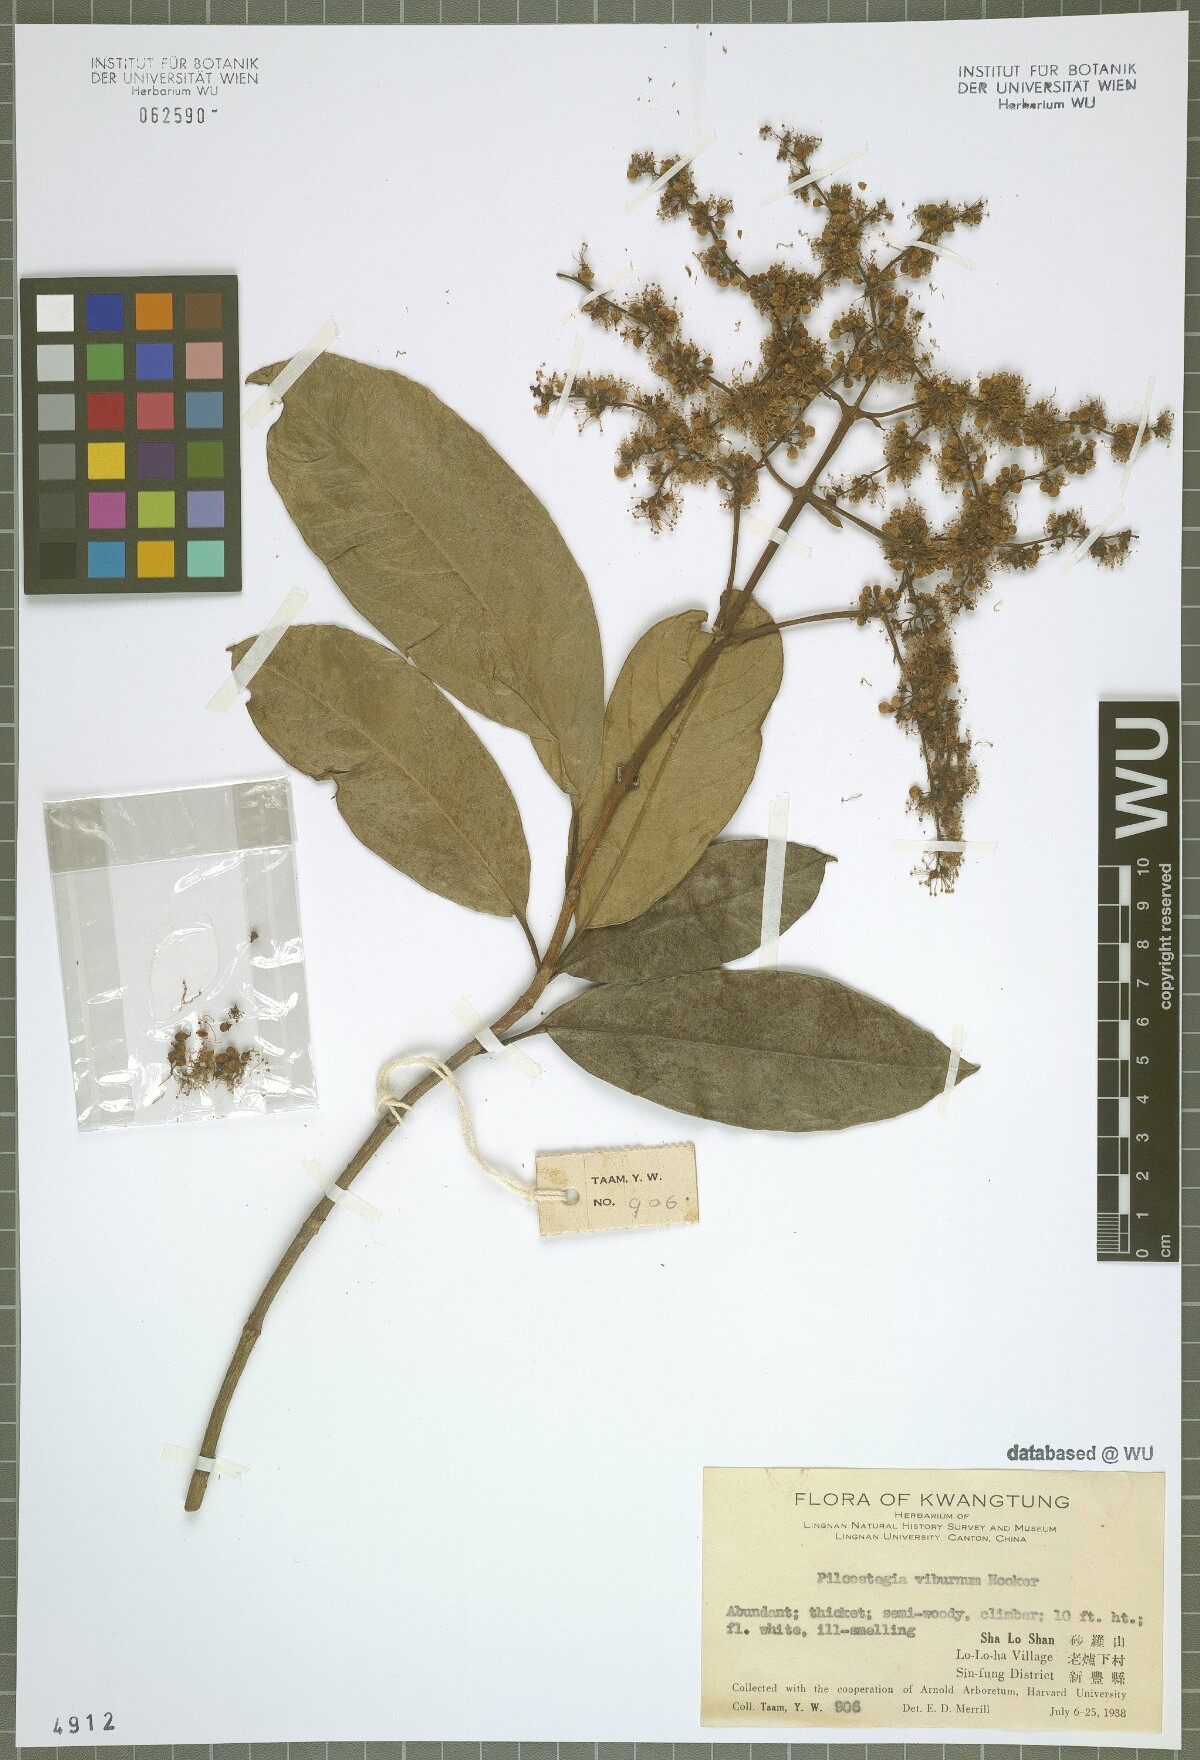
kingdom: Plantae
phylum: Tracheophyta
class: Magnoliopsida
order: Cornales
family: Hydrangeaceae
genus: Hydrangea
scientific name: Hydrangea viburnoides
